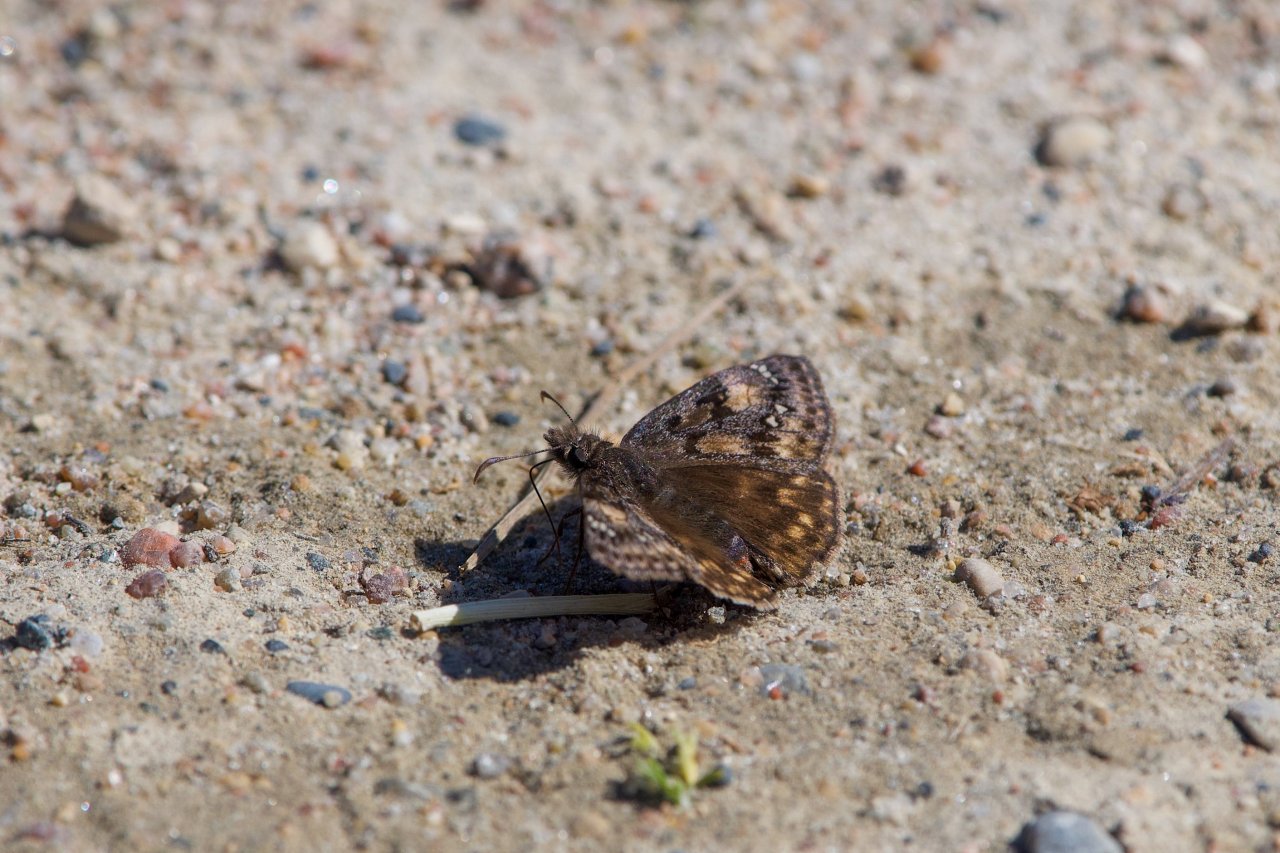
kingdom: Animalia
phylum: Arthropoda
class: Insecta
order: Lepidoptera
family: Hesperiidae
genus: Gesta
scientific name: Gesta
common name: Juvenal's Duskywing
